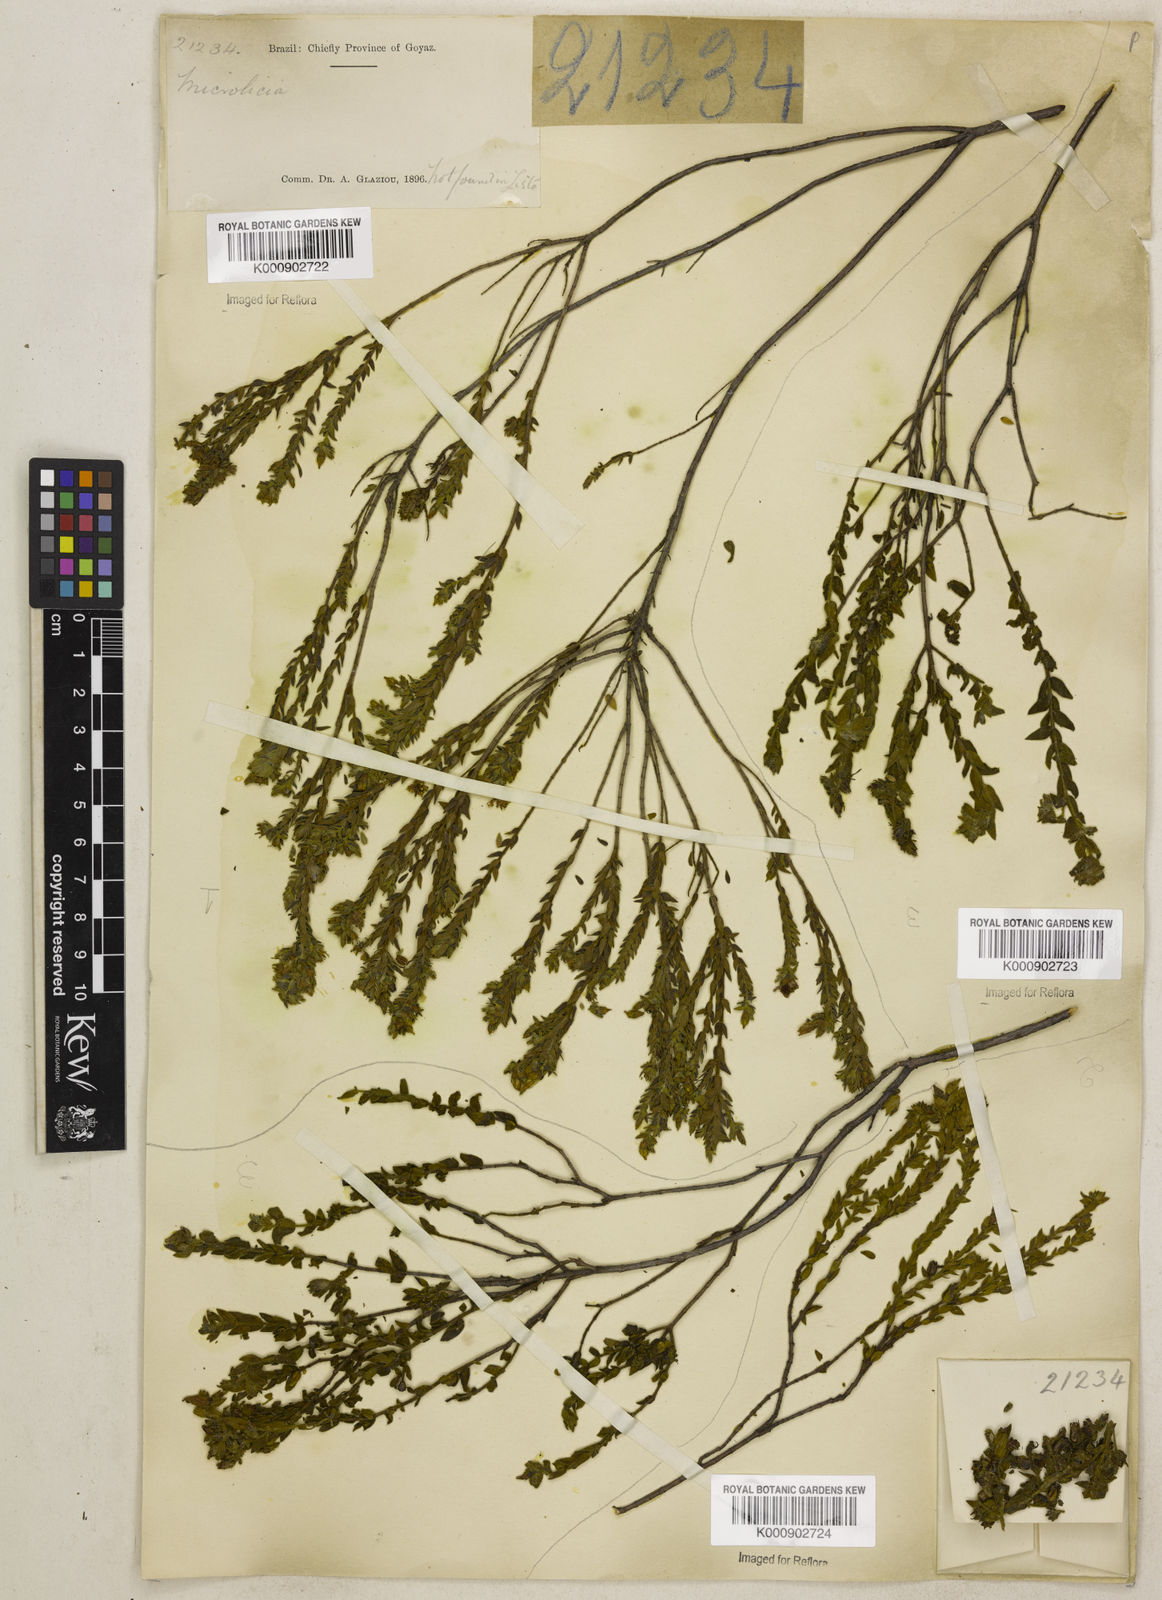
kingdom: Plantae
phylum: Tracheophyta
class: Magnoliopsida
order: Myrtales
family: Melastomataceae
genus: Microlicia
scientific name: Microlicia
